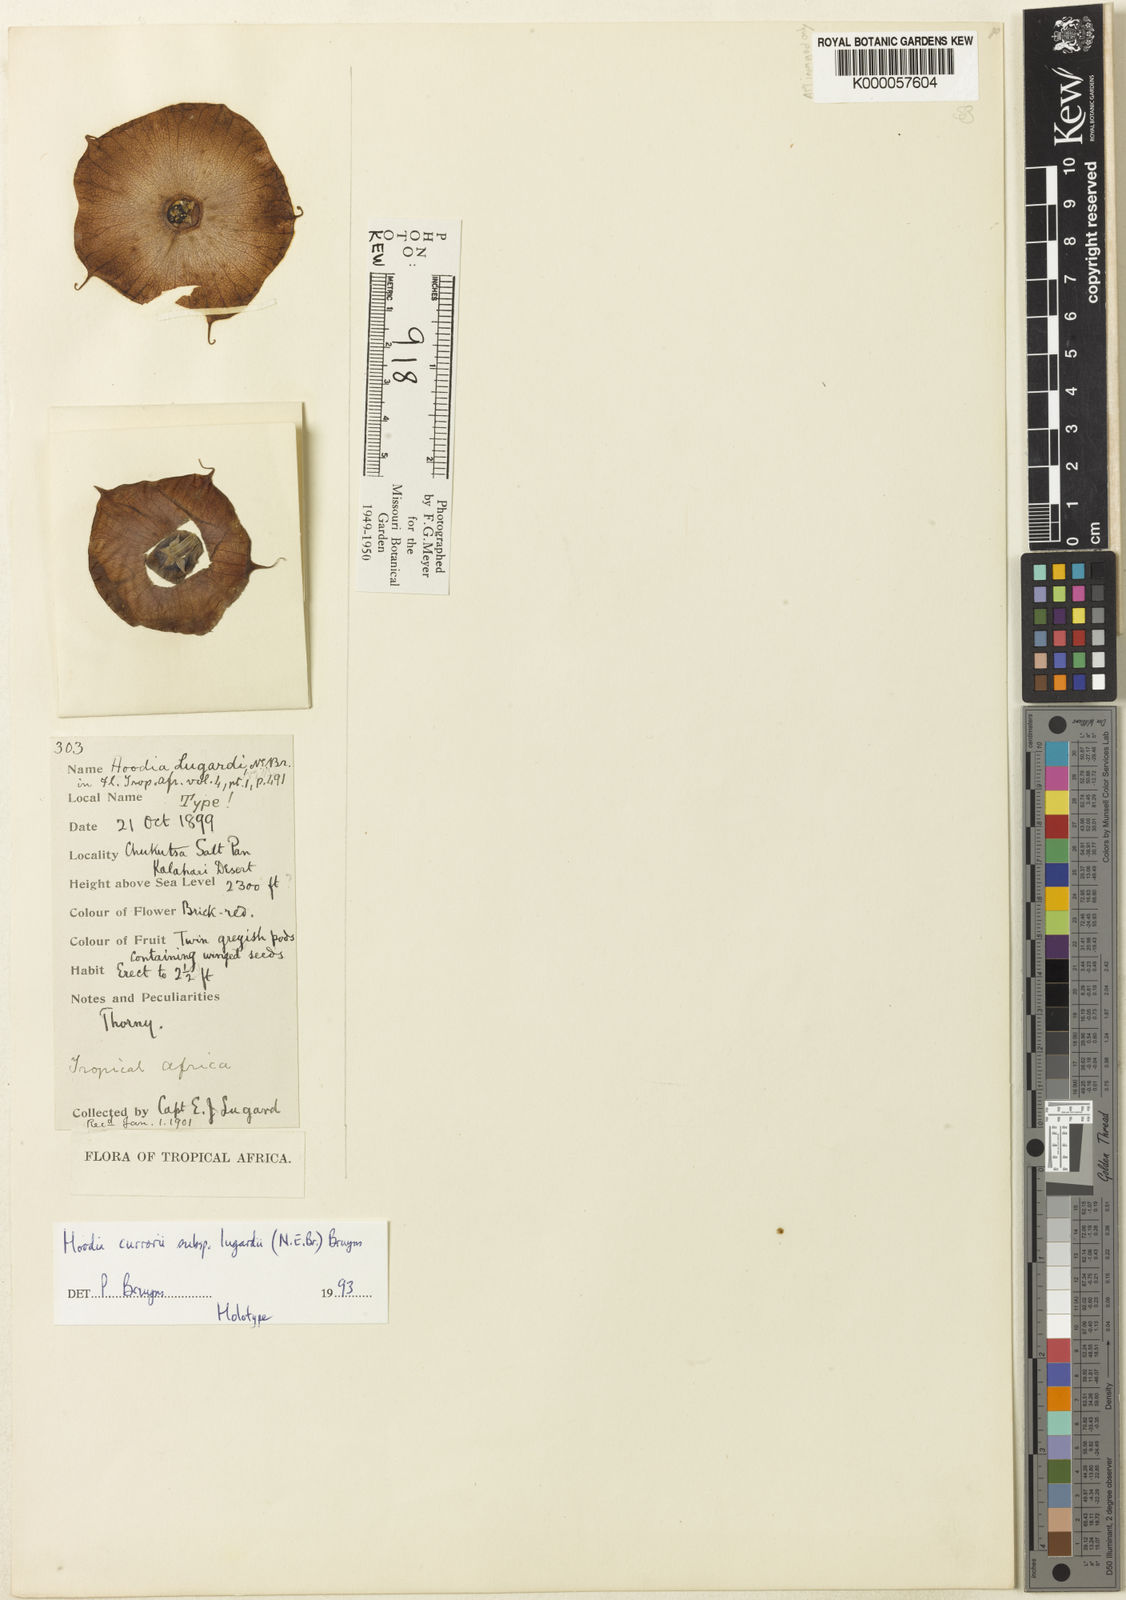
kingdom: Plantae
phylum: Tracheophyta
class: Magnoliopsida
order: Gentianales
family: Apocynaceae
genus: Ceropegia
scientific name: Ceropegia currorii
